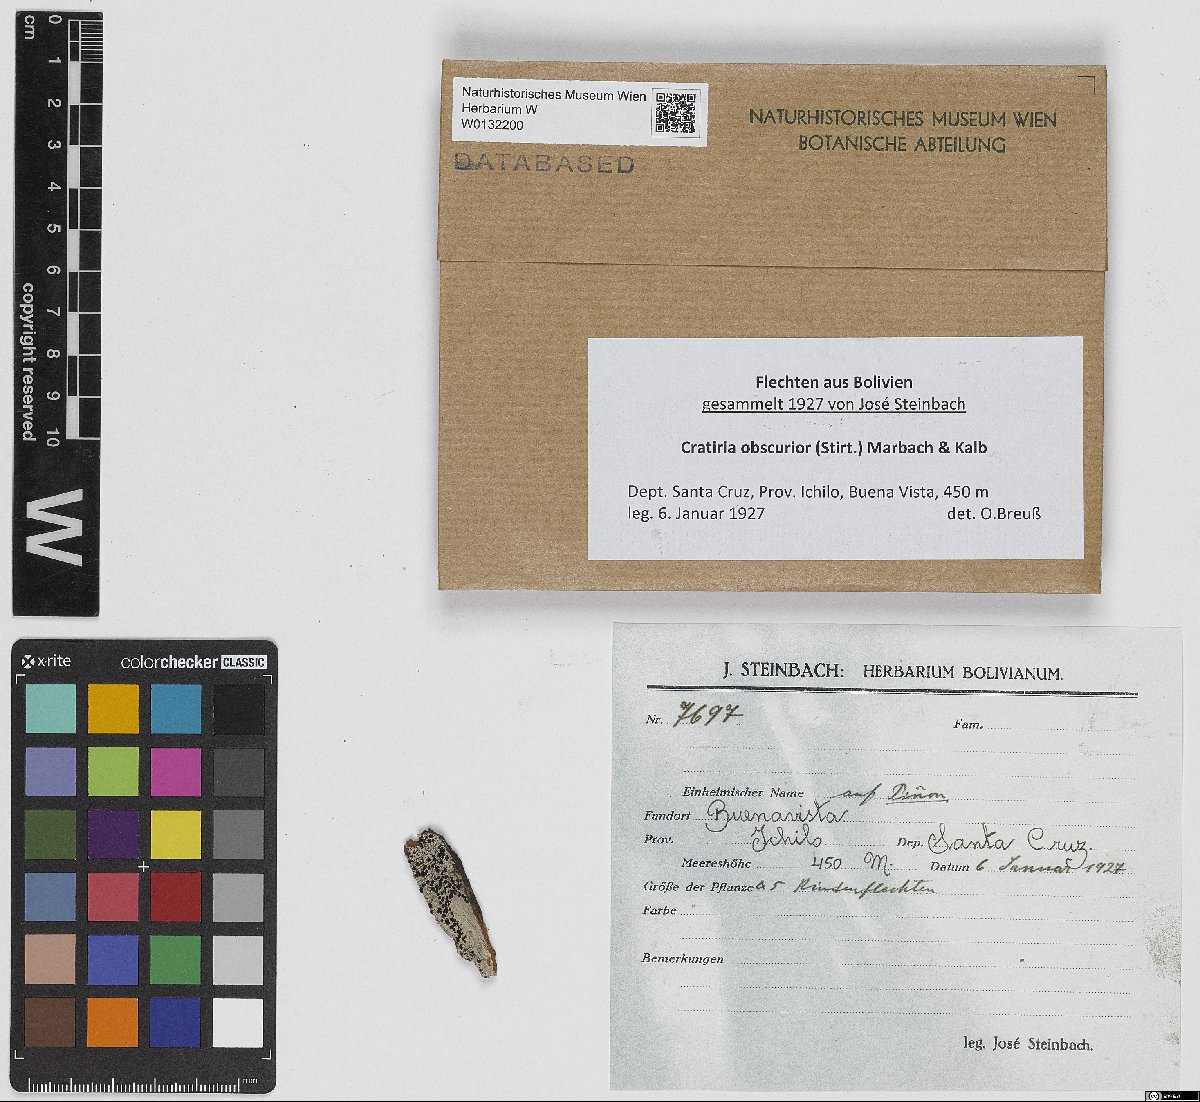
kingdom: Fungi
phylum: Ascomycota
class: Lecanoromycetes
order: Caliciales
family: Caliciaceae
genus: Cratiria
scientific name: Cratiria obscurior
